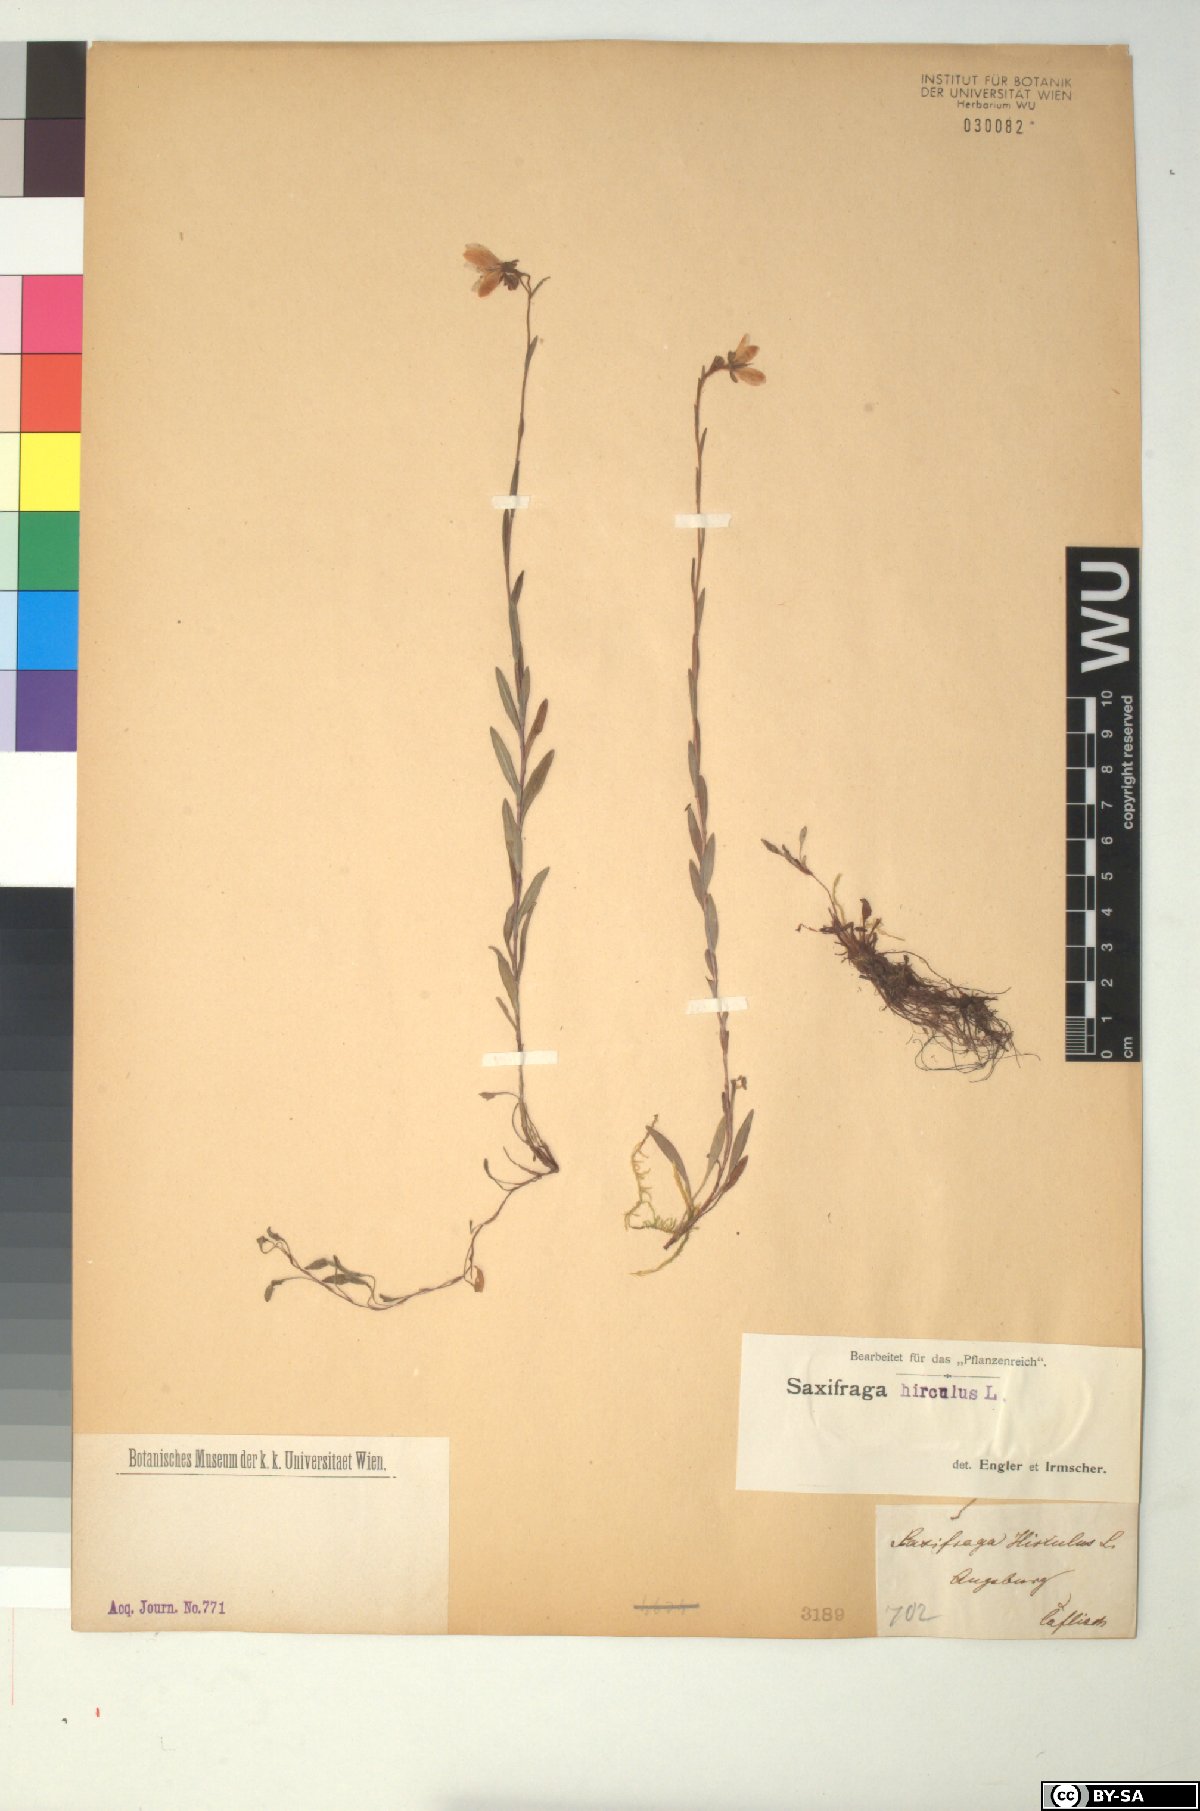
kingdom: Plantae
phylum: Tracheophyta
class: Magnoliopsida
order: Saxifragales
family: Saxifragaceae
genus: Saxifraga
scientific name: Saxifraga hirculus
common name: Yellow marsh saxifrage
